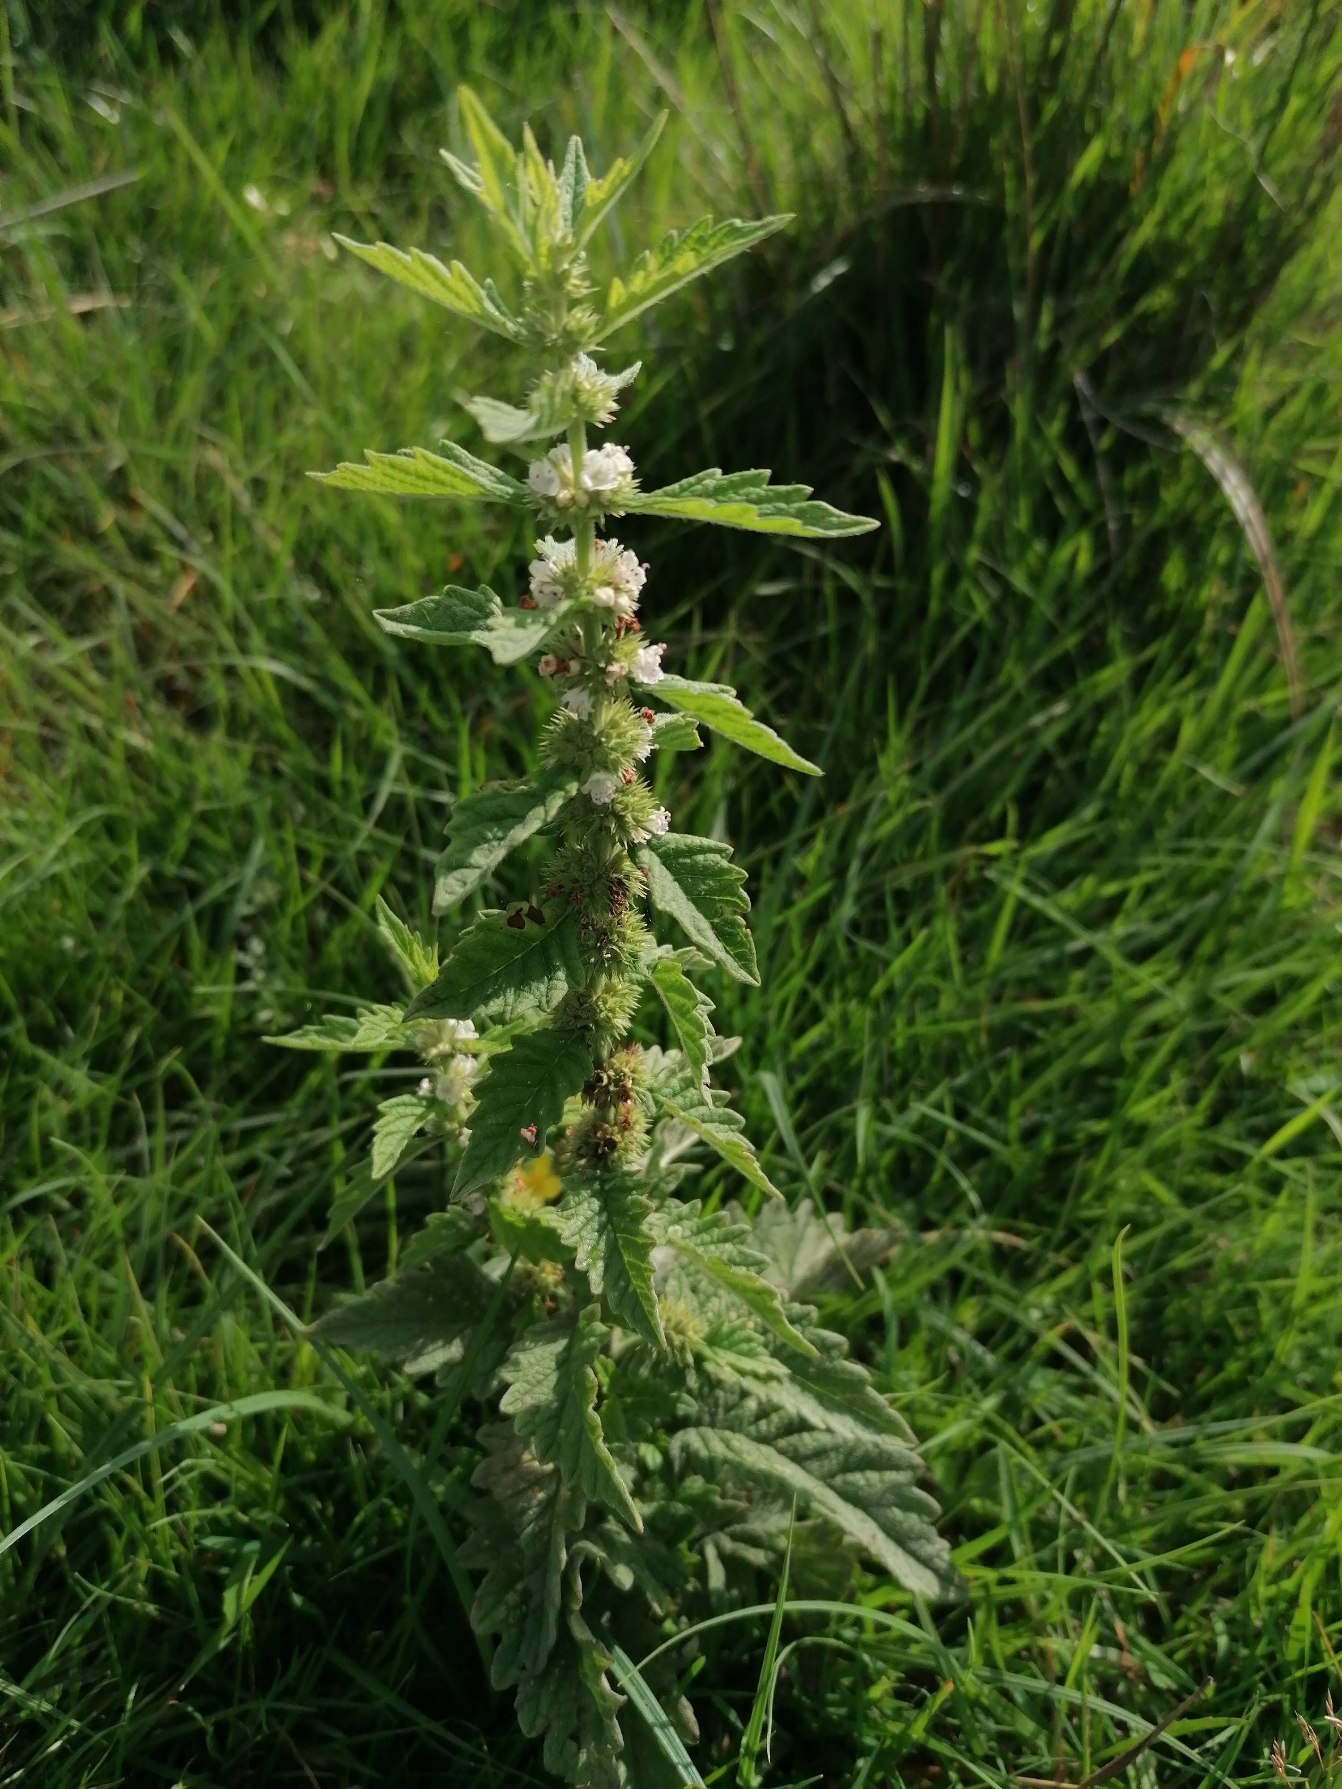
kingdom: Plantae
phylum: Tracheophyta
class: Magnoliopsida
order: Lamiales
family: Lamiaceae
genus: Lycopus
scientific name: Lycopus europaeus
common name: Sværtevæld
